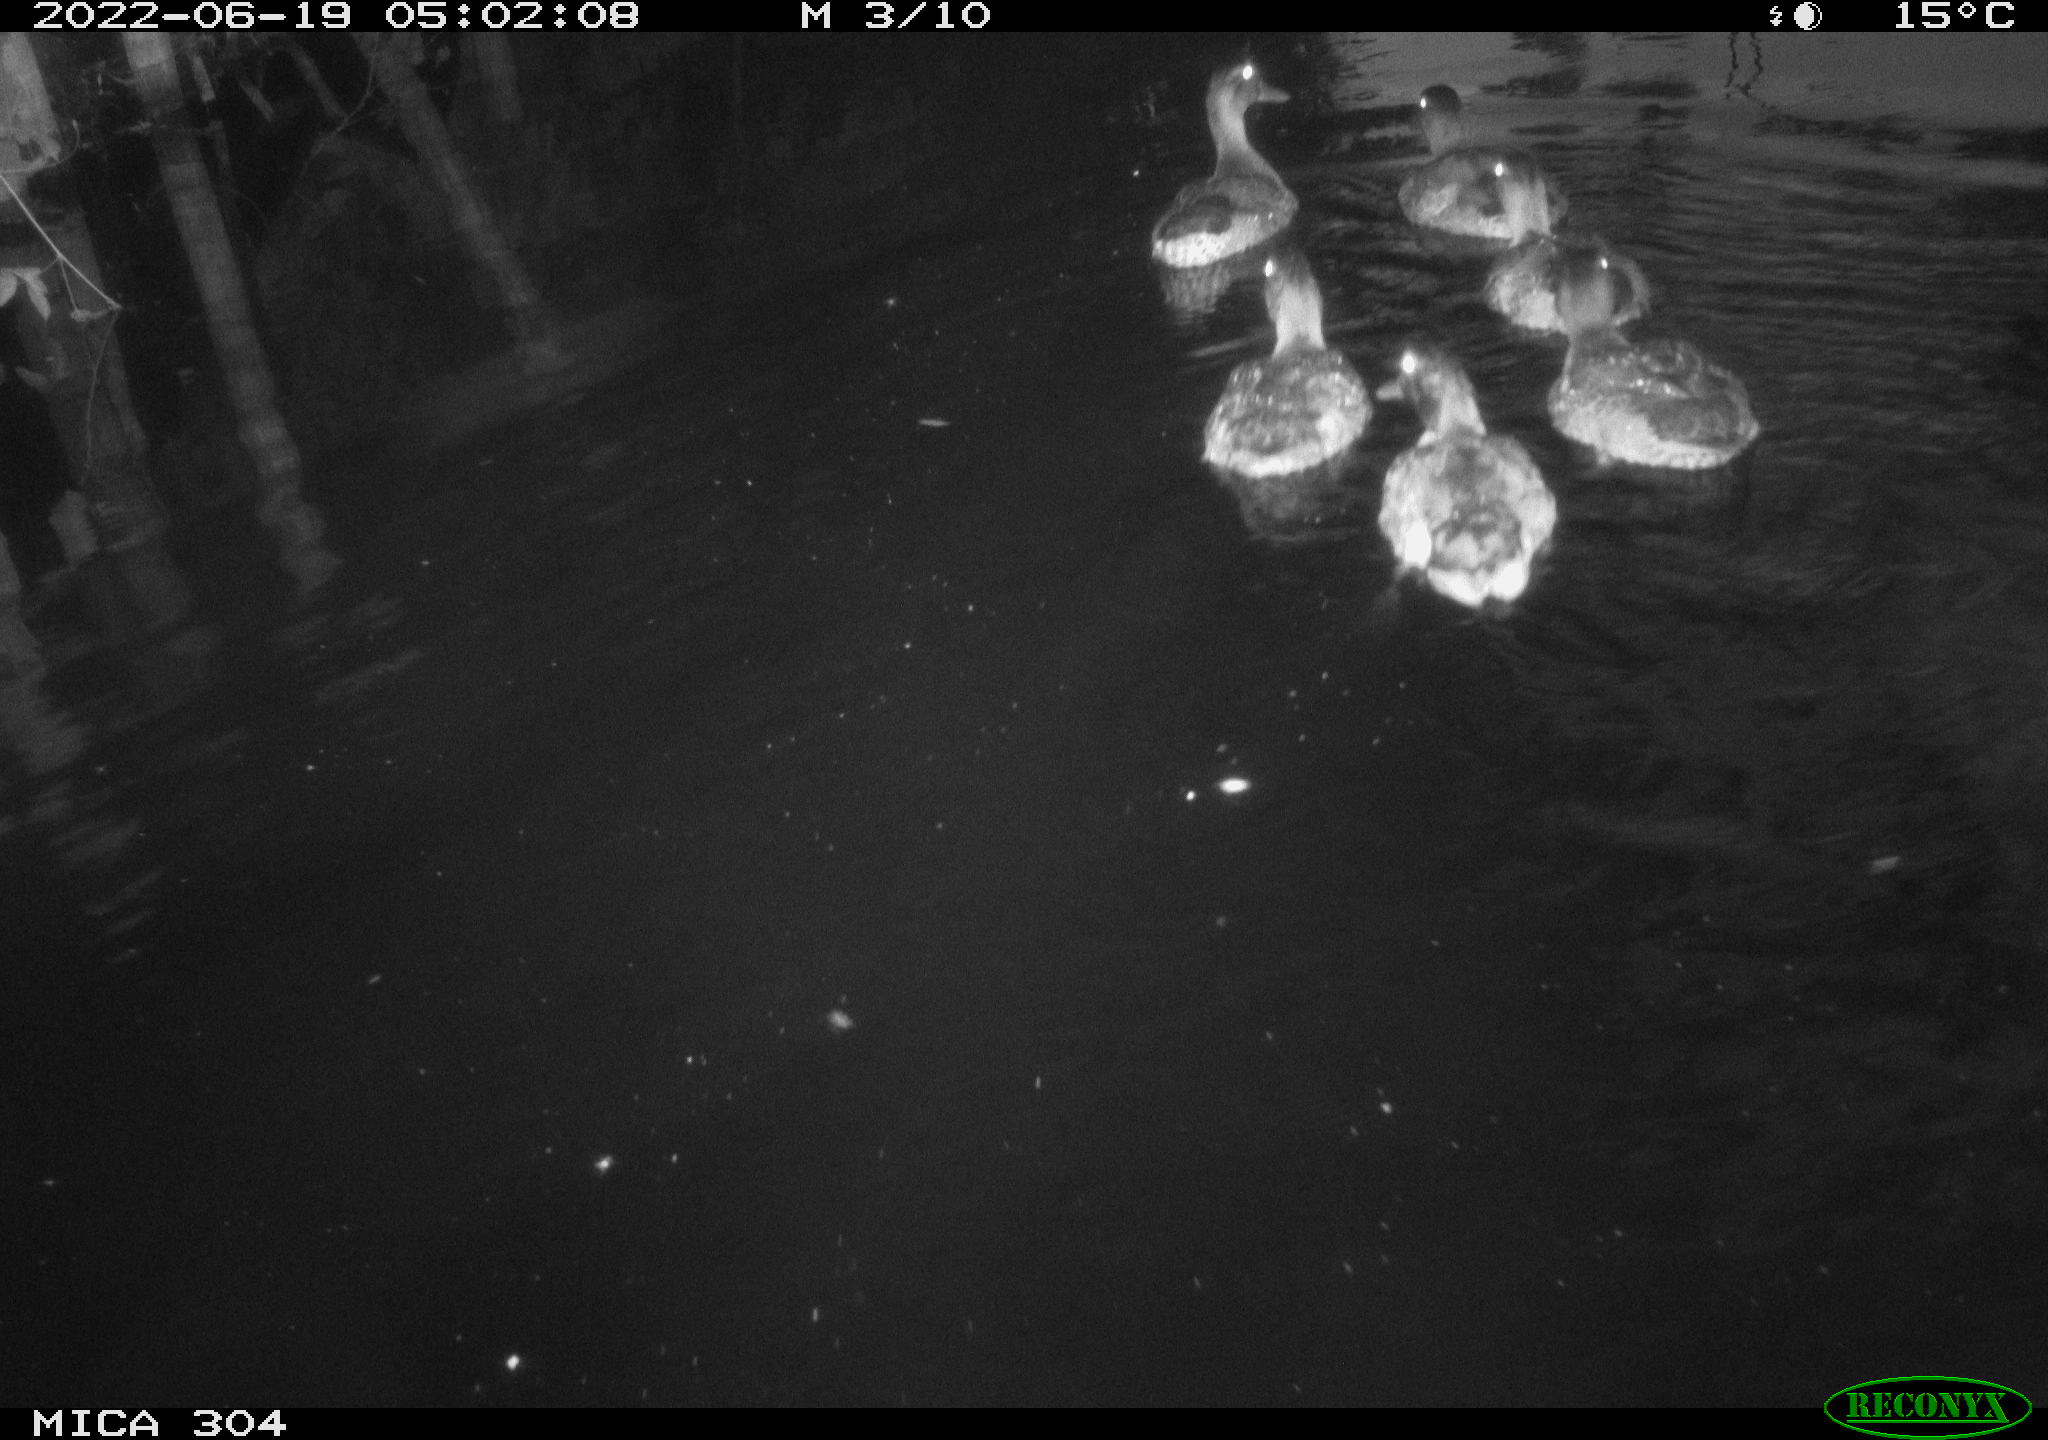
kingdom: Animalia
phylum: Chordata
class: Aves
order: Anseriformes
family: Anatidae
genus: Anas
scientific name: Anas platyrhynchos
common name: Mallard
